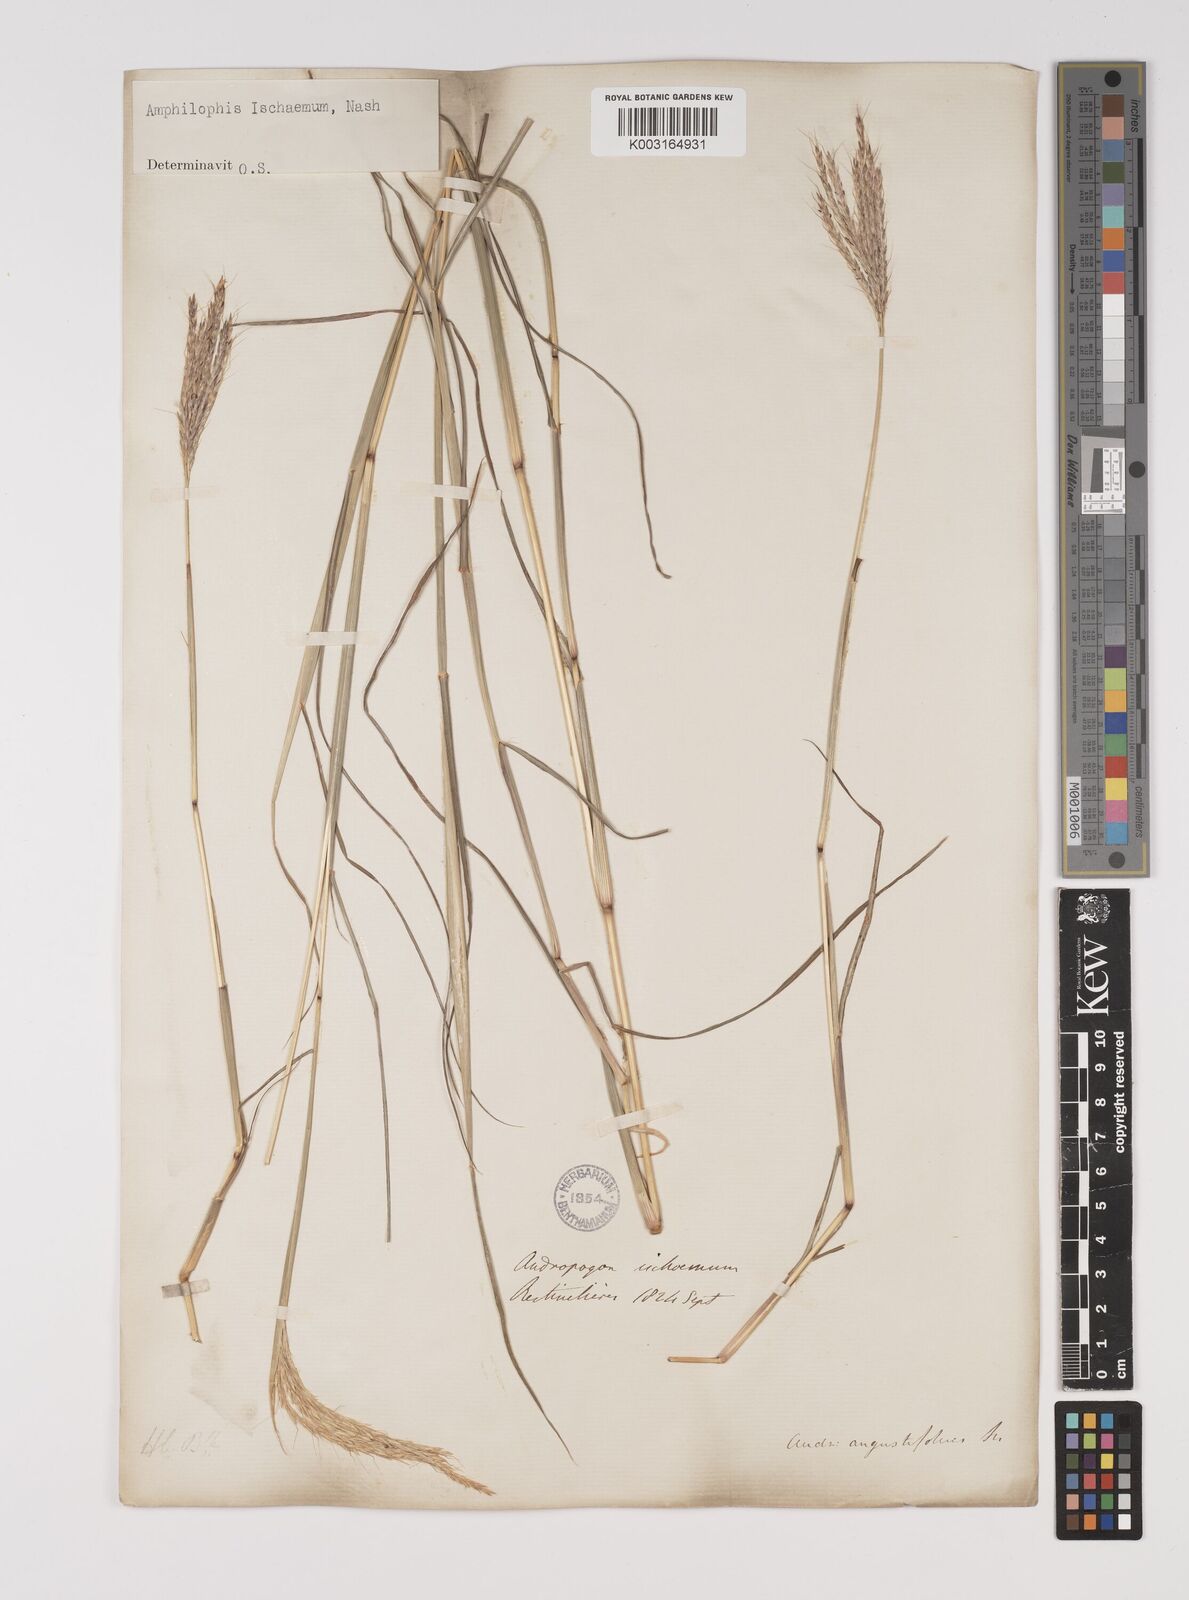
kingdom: Plantae
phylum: Tracheophyta
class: Liliopsida
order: Poales
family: Poaceae
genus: Bothriochloa
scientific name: Bothriochloa ischaemum
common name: Yellow bluestem
